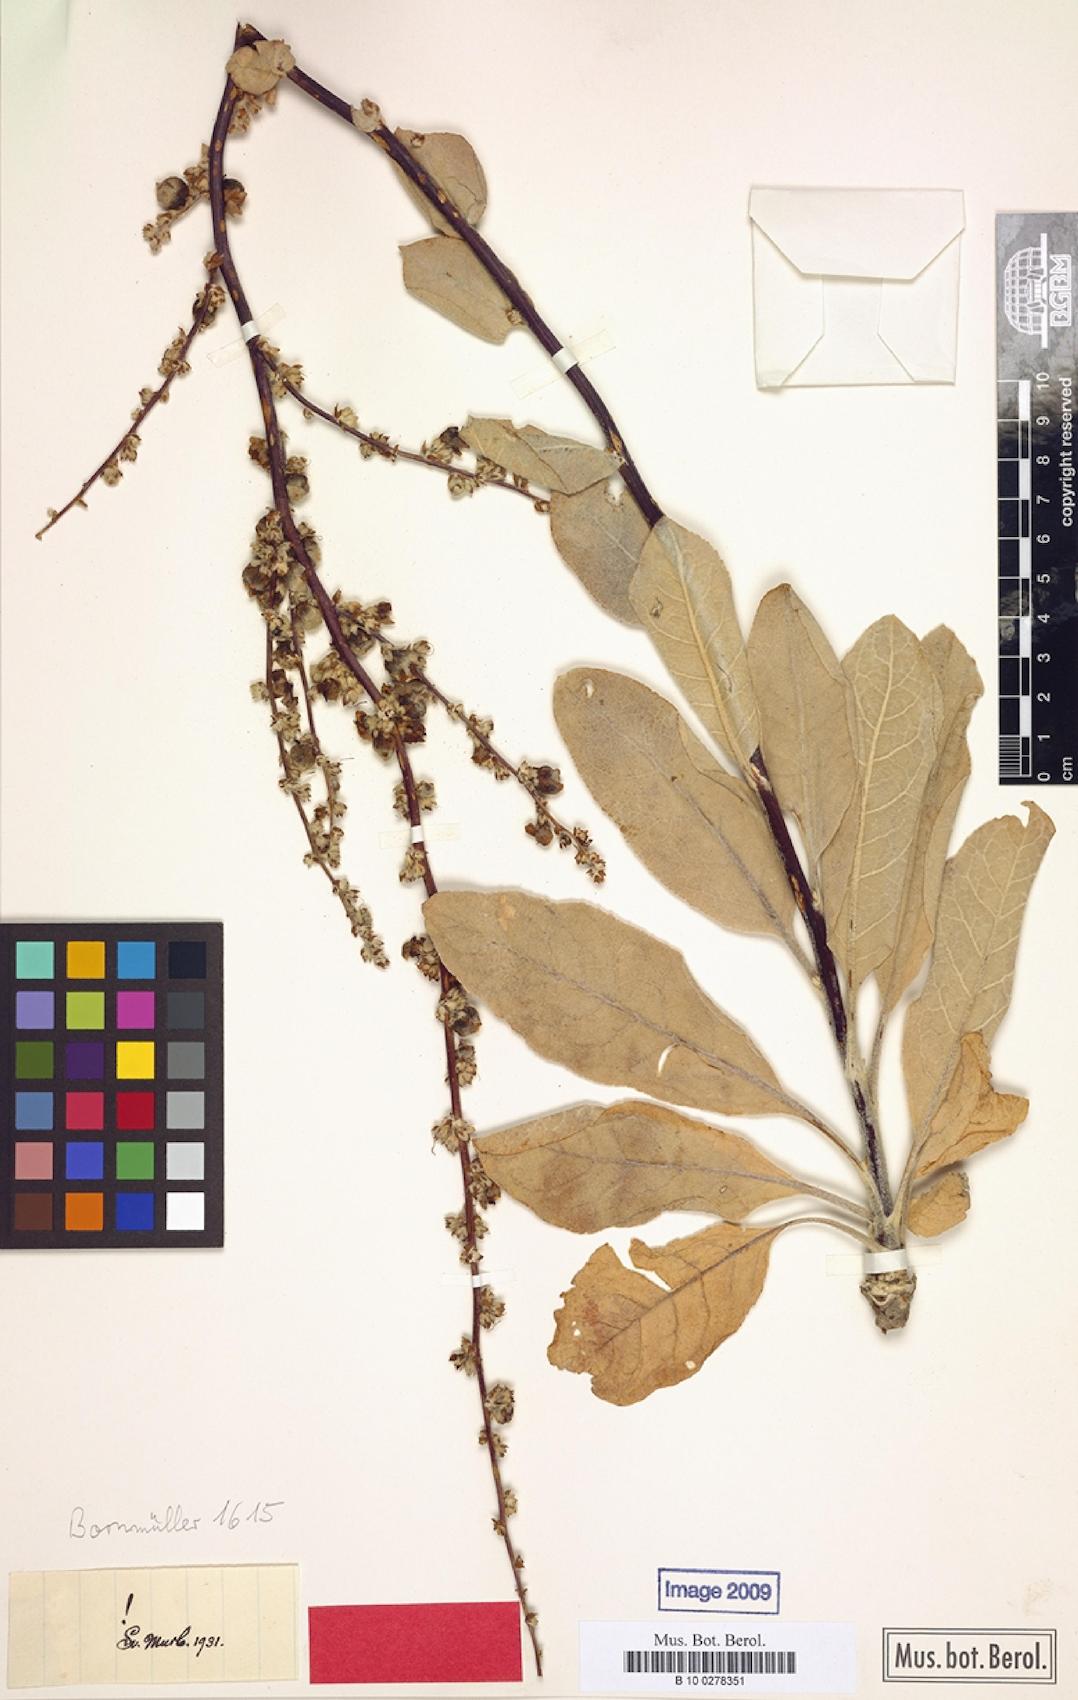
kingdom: Plantae
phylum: Tracheophyta
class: Magnoliopsida
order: Lamiales
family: Scrophulariaceae
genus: Verbascum
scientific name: Verbascum carduchorum
